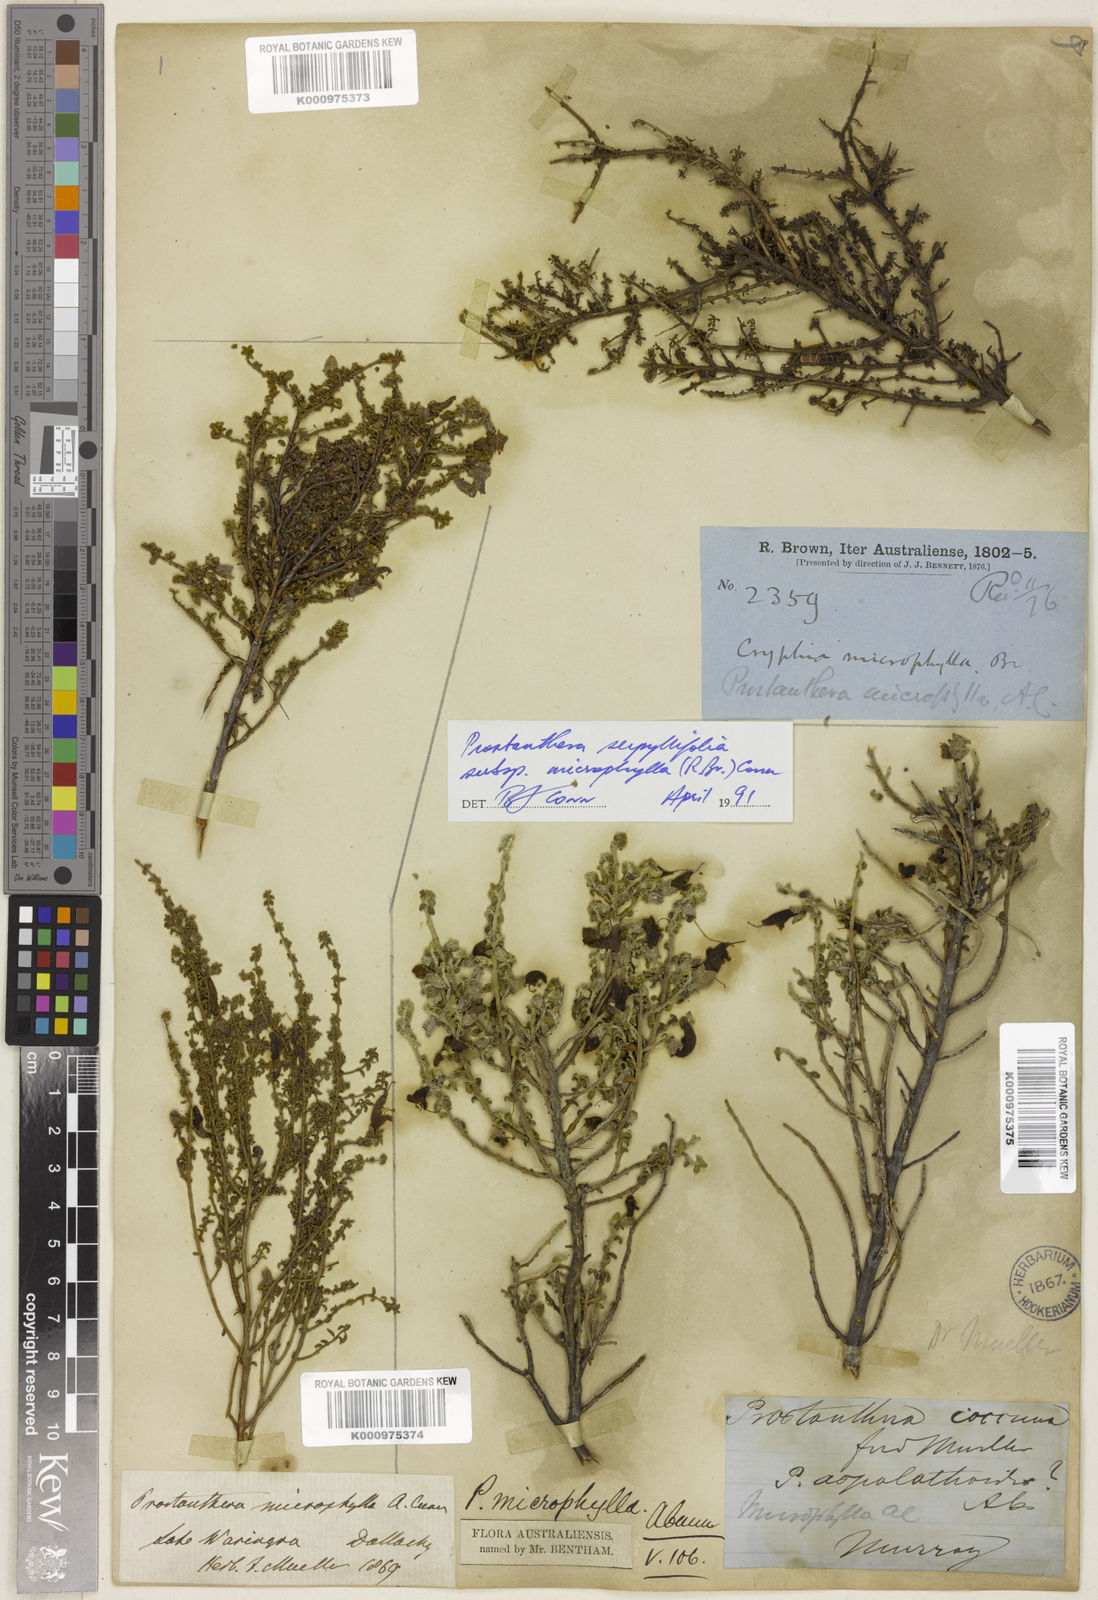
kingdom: Plantae
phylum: Tracheophyta
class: Magnoliopsida
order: Lamiales
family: Lamiaceae
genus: Prostanthera
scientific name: Prostanthera microphylla
